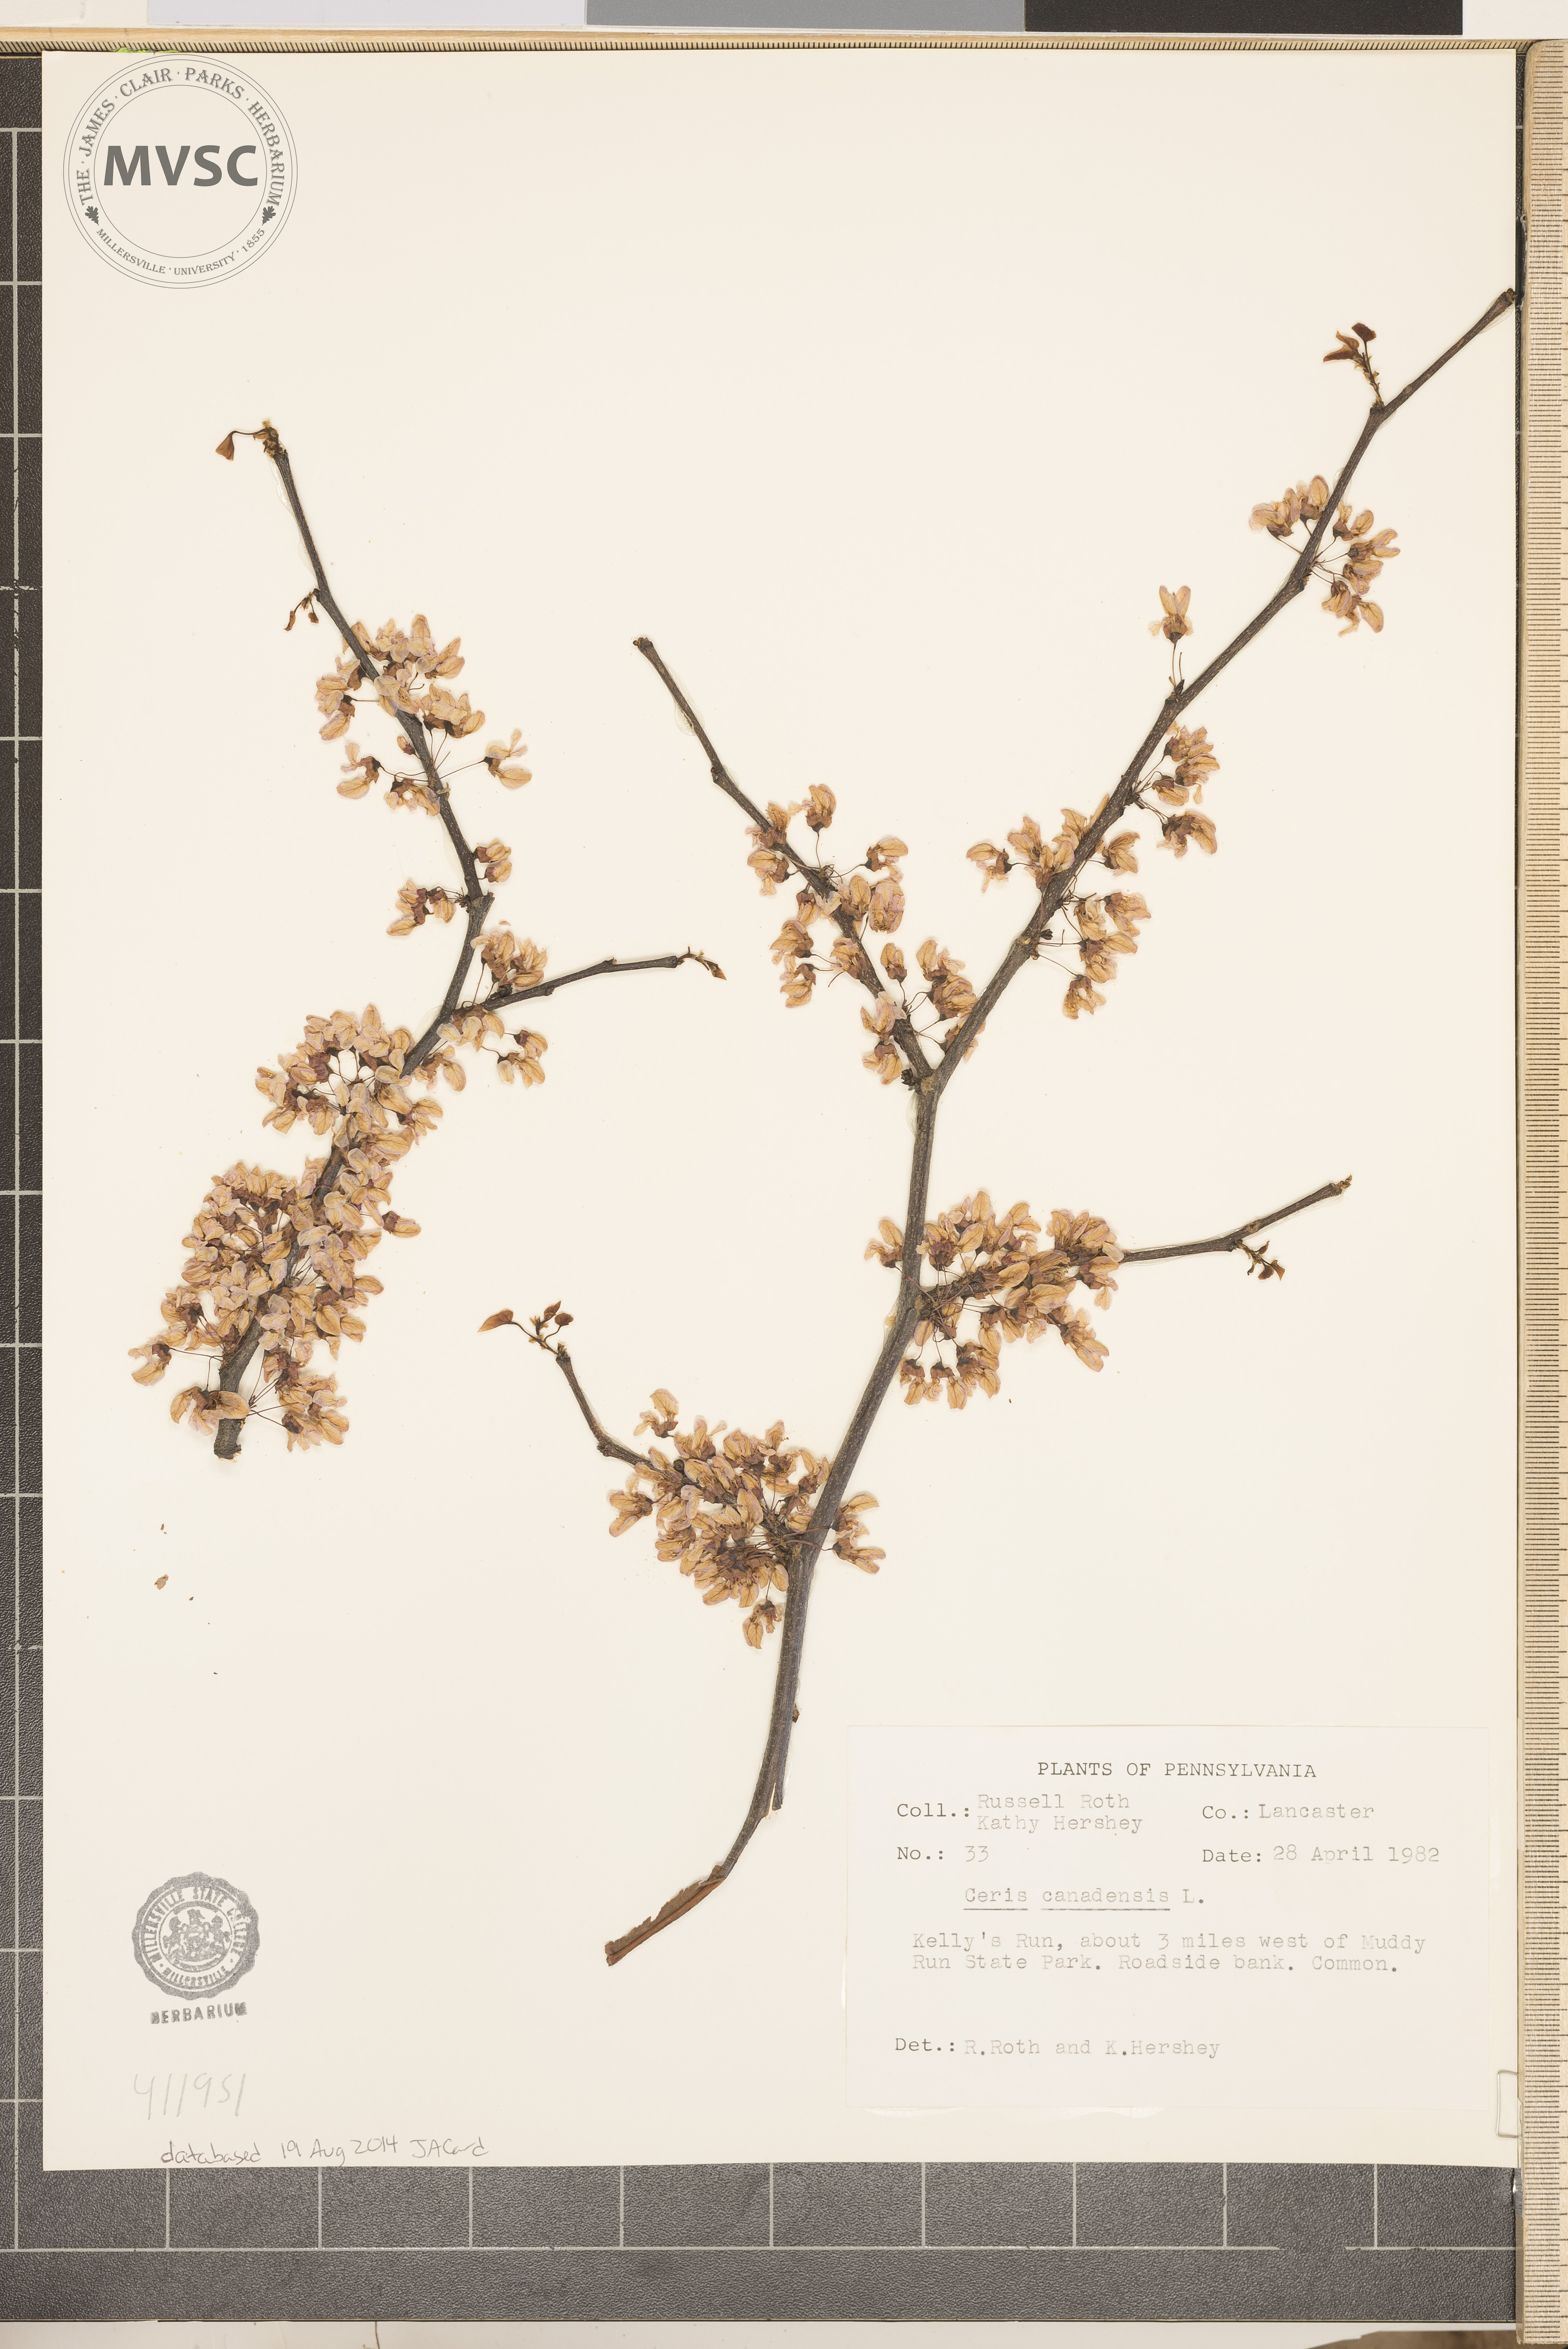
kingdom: Plantae
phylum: Tracheophyta
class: Magnoliopsida
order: Fabales
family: Fabaceae
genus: Cercis
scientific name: Cercis canadensis
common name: Eastern redbud
